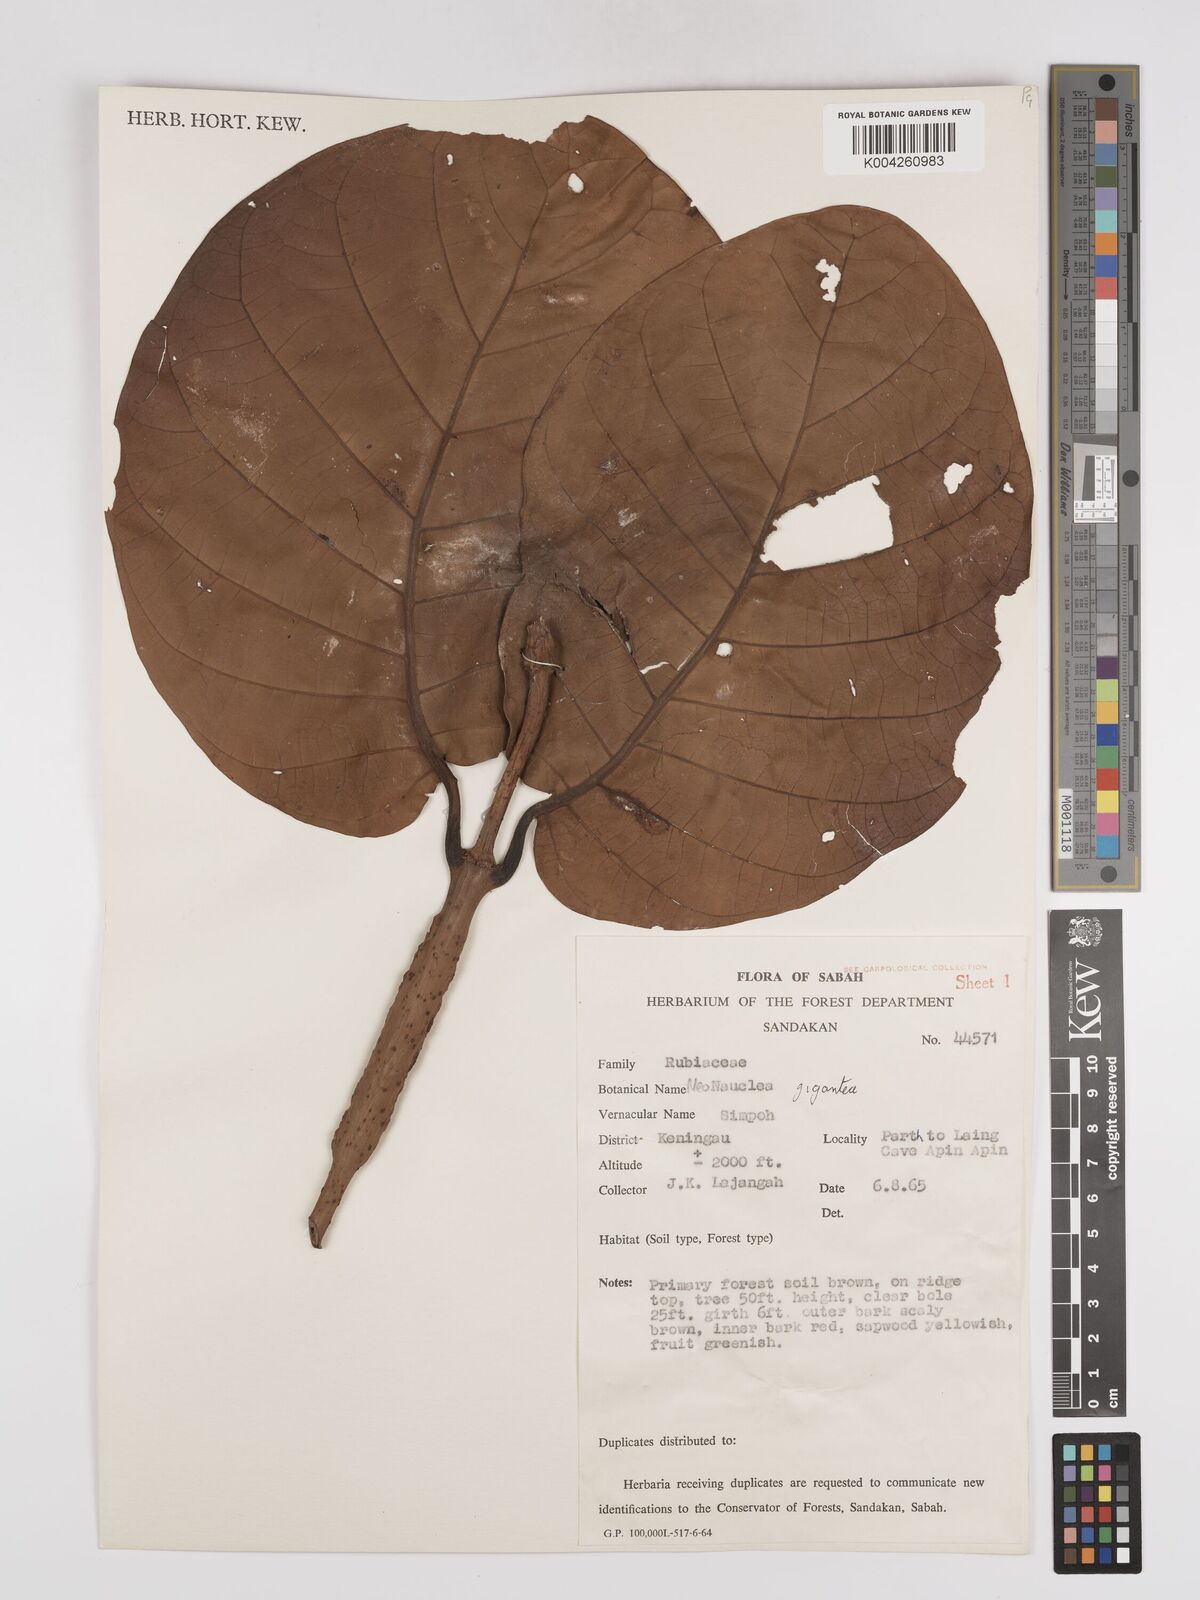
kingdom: Plantae
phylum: Tracheophyta
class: Magnoliopsida
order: Gentianales
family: Rubiaceae
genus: Neonauclea
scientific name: Neonauclea gigantea
